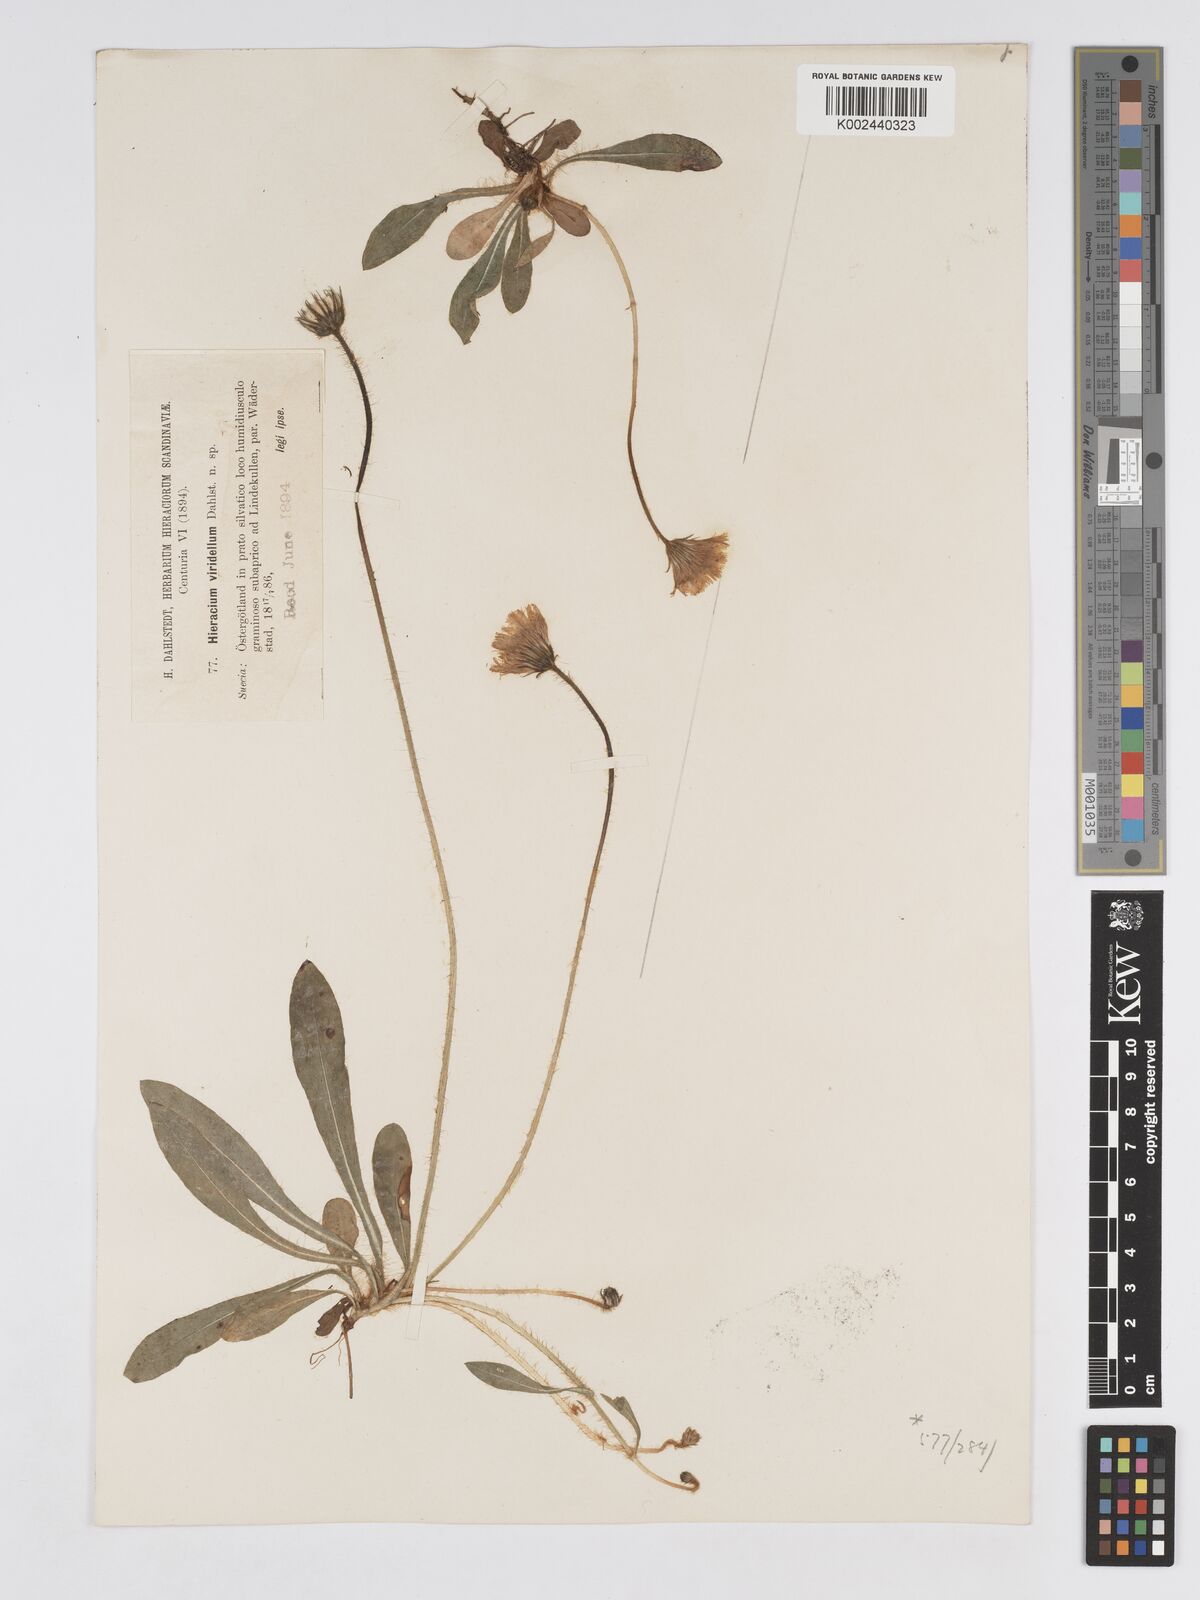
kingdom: Plantae
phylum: Tracheophyta
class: Magnoliopsida
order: Asterales
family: Asteraceae
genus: Pilosella
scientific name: Pilosella officinarum
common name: Mouse-ear hawkweed
